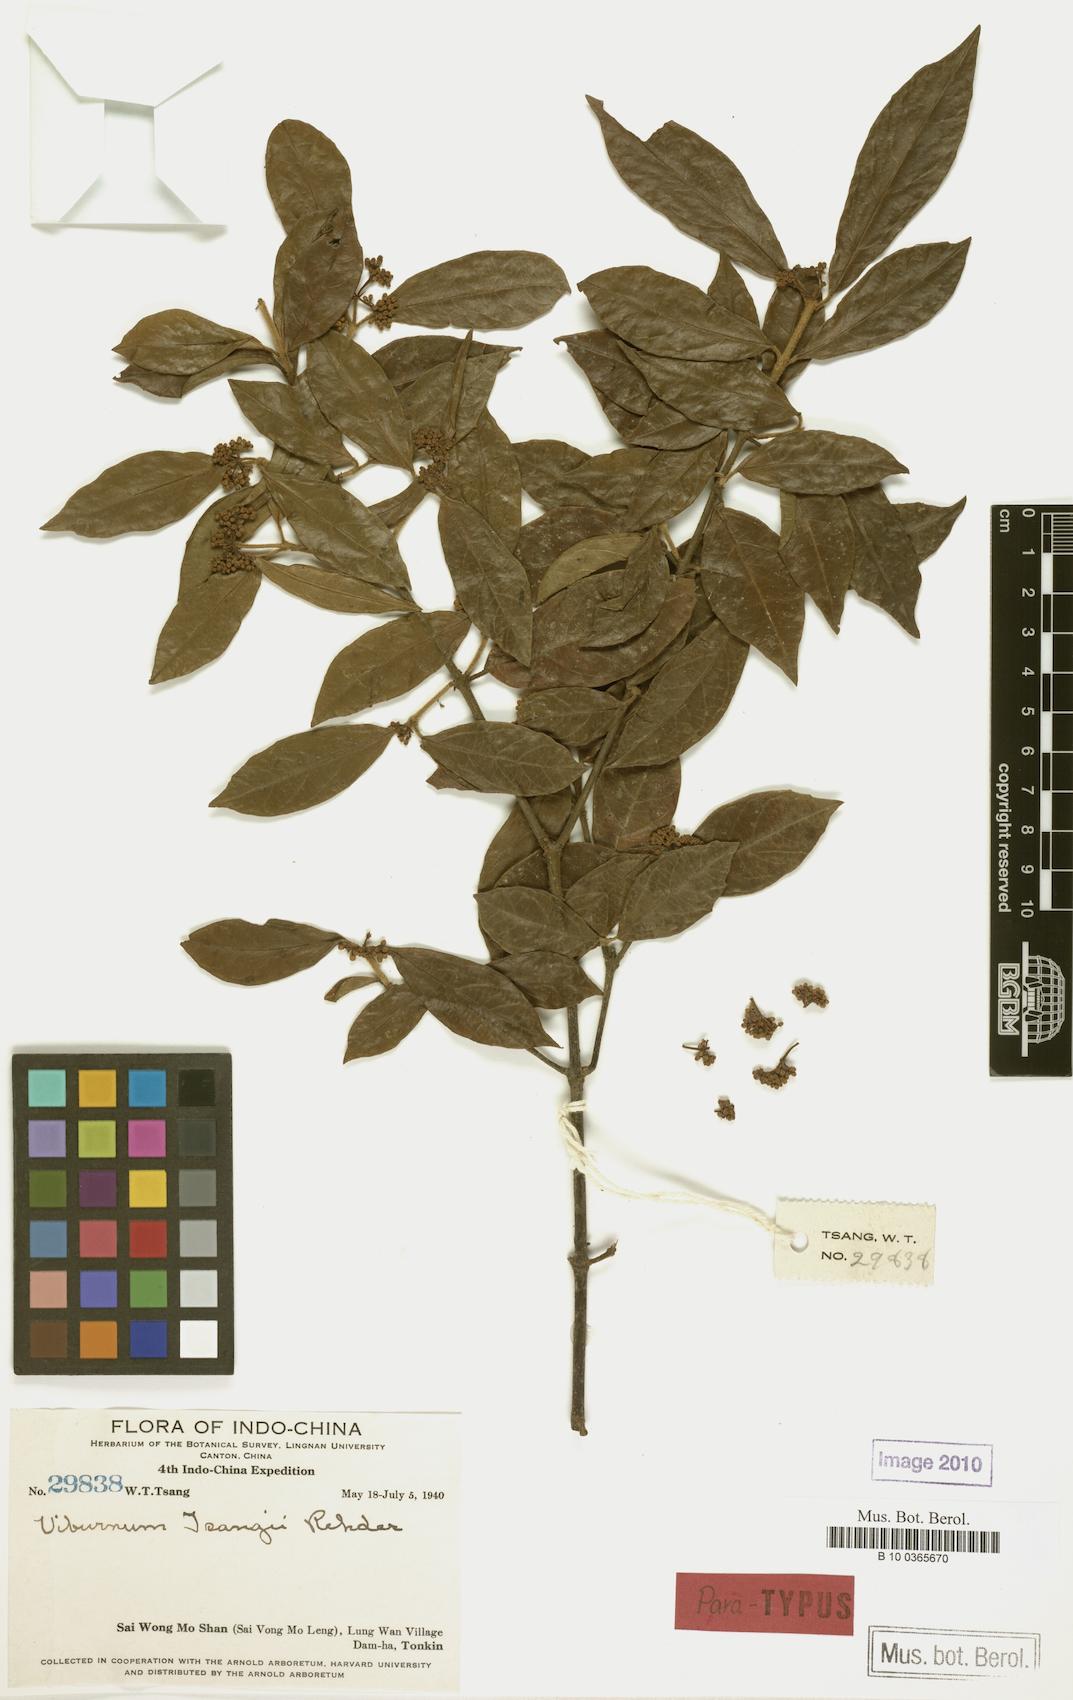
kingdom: Plantae
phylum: Tracheophyta
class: Magnoliopsida
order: Dipsacales
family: Viburnaceae
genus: Viburnum
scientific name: Viburnum hainanense
